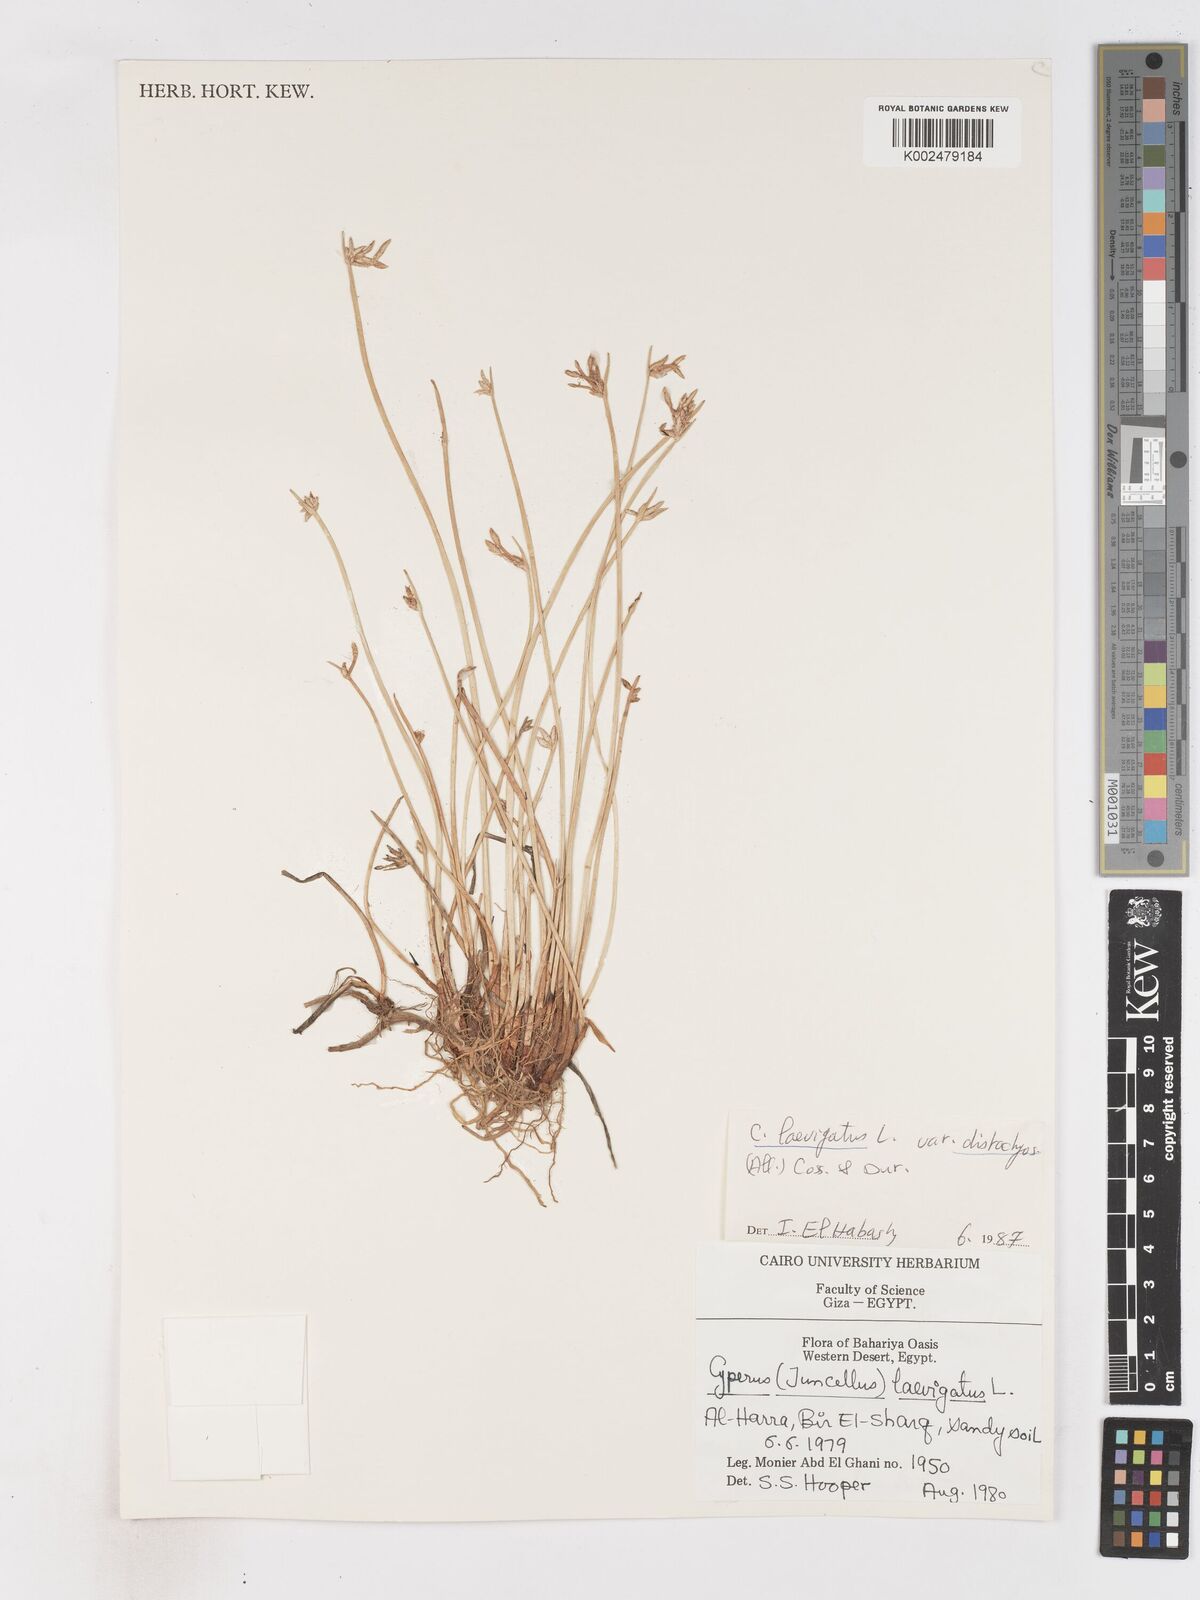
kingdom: Plantae
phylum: Tracheophyta
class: Liliopsida
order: Poales
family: Cyperaceae
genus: Cyperus
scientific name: Cyperus laevigatus
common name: Smooth flat sedge
